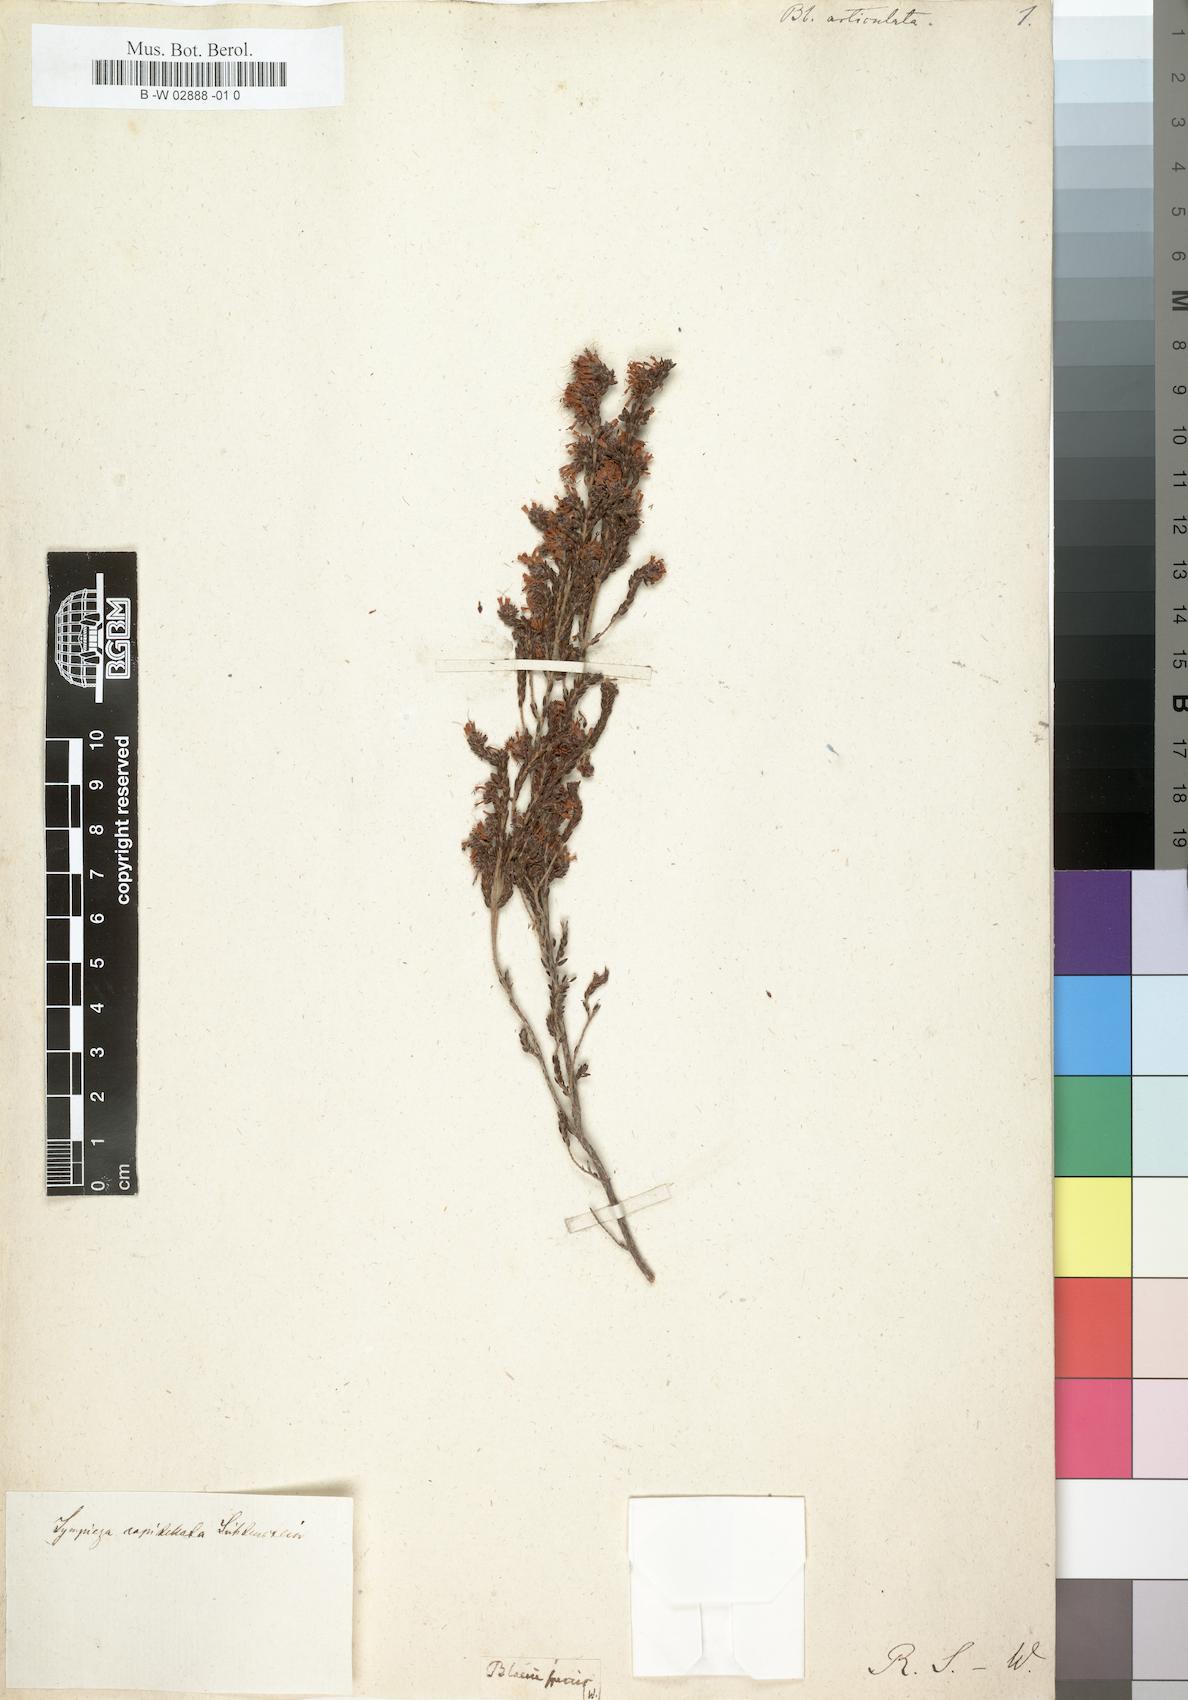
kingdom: Plantae
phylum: Tracheophyta
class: Magnoliopsida
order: Ericales
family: Ericaceae
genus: Erica
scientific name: Erica similis
